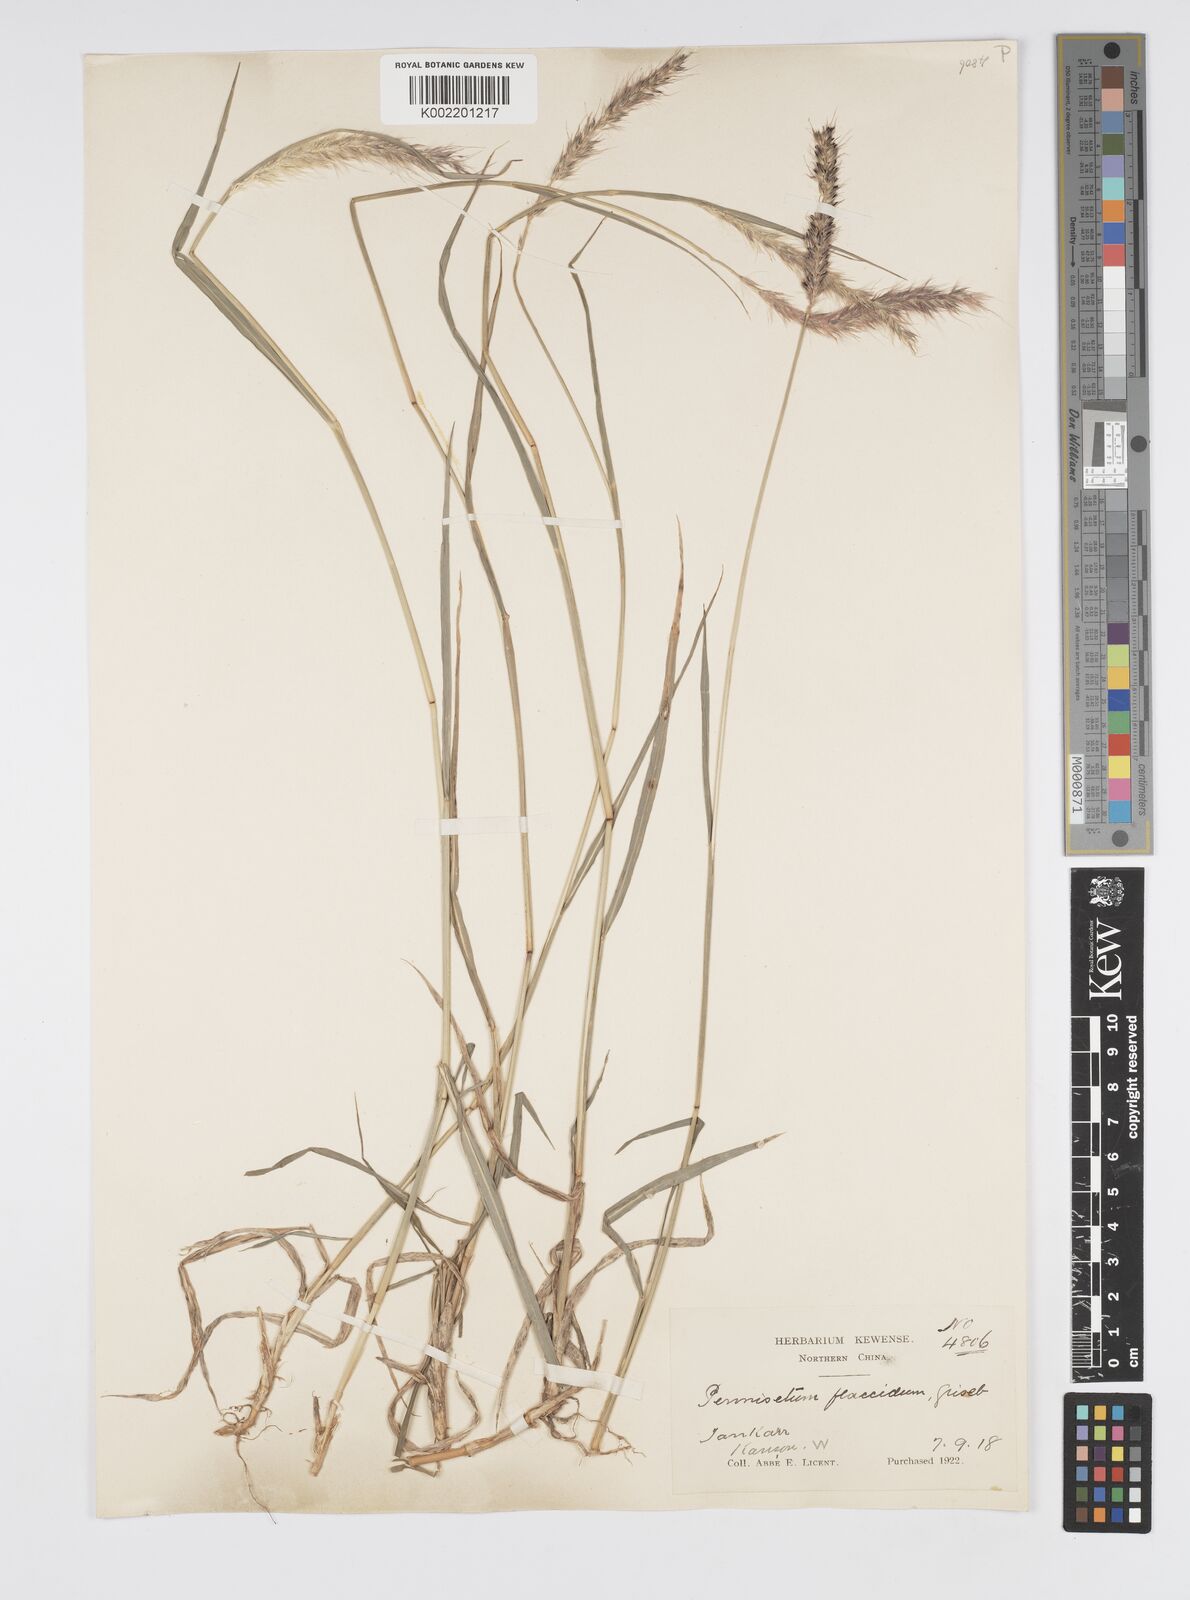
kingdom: Plantae
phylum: Tracheophyta
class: Liliopsida
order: Poales
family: Poaceae
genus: Cenchrus
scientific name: Cenchrus flaccidus
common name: Flaccid grass
